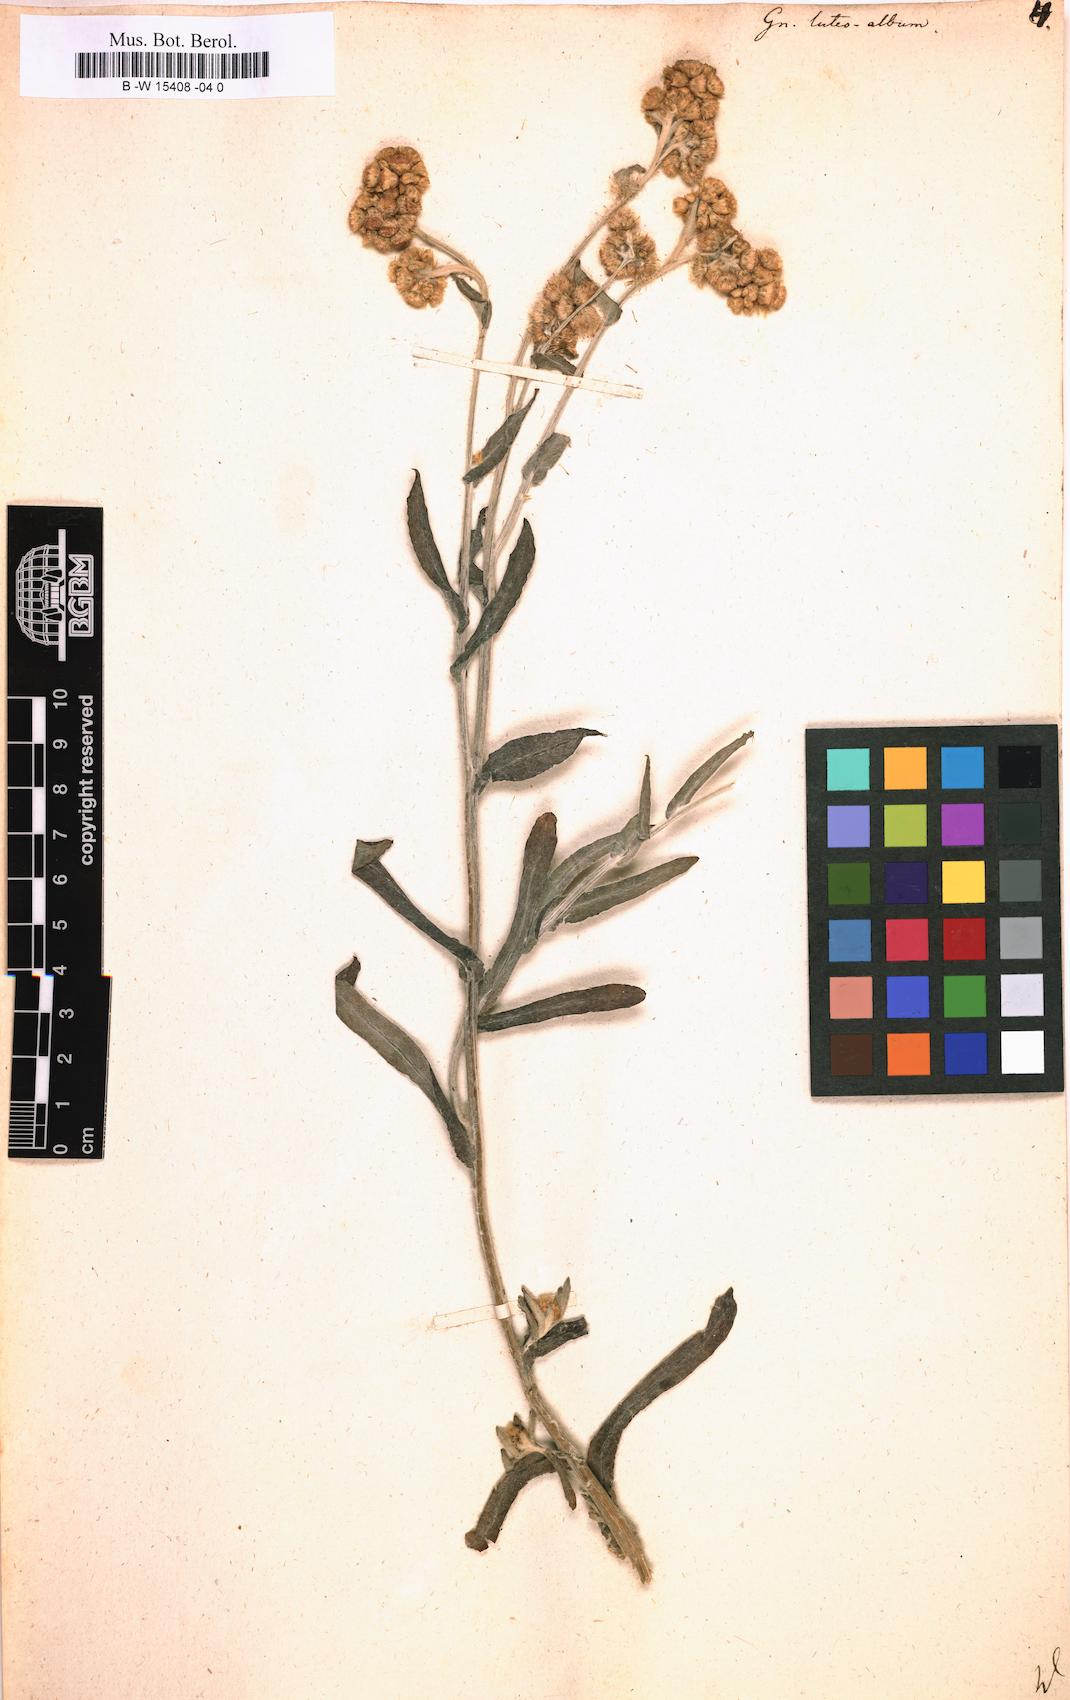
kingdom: Plantae
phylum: Tracheophyta
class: Magnoliopsida
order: Asterales
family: Asteraceae
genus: Helichrysum
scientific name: Helichrysum luteoalbum
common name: Daisy
